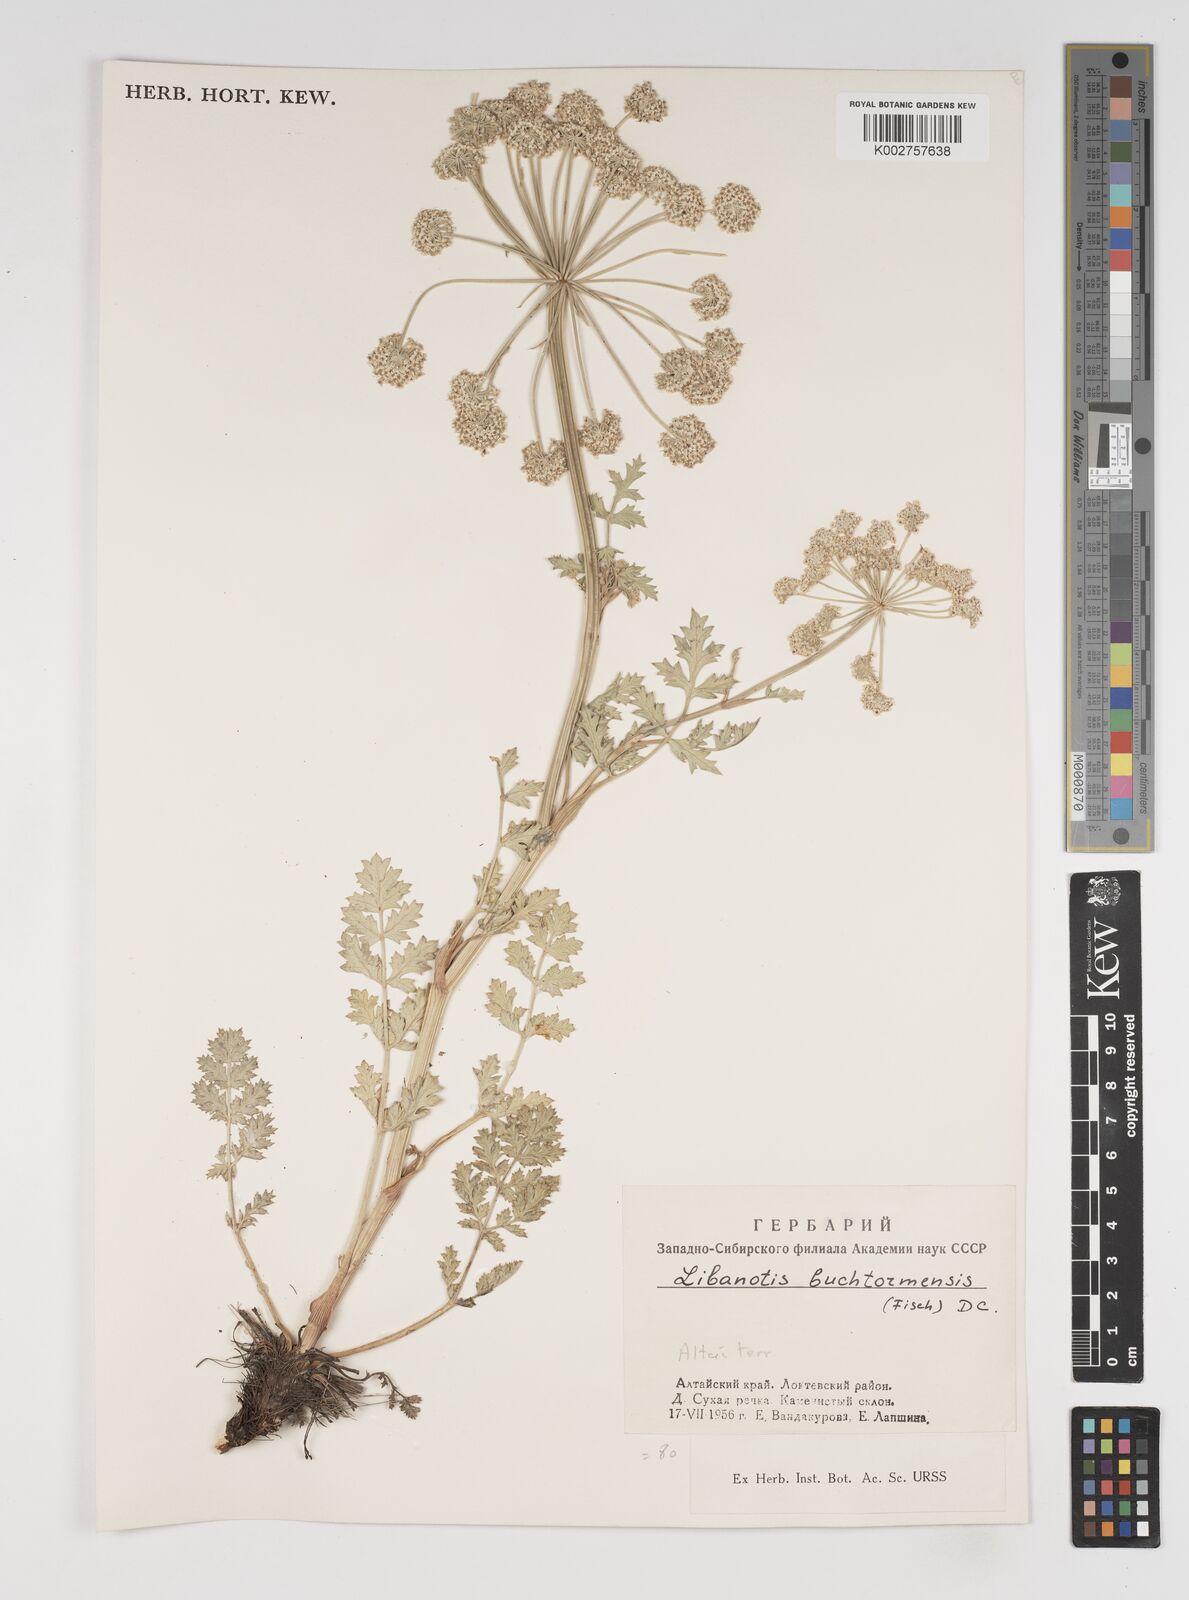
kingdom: Plantae
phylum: Tracheophyta
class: Magnoliopsida
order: Apiales
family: Apiaceae
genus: Seseli
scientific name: Seseli buchtormense
